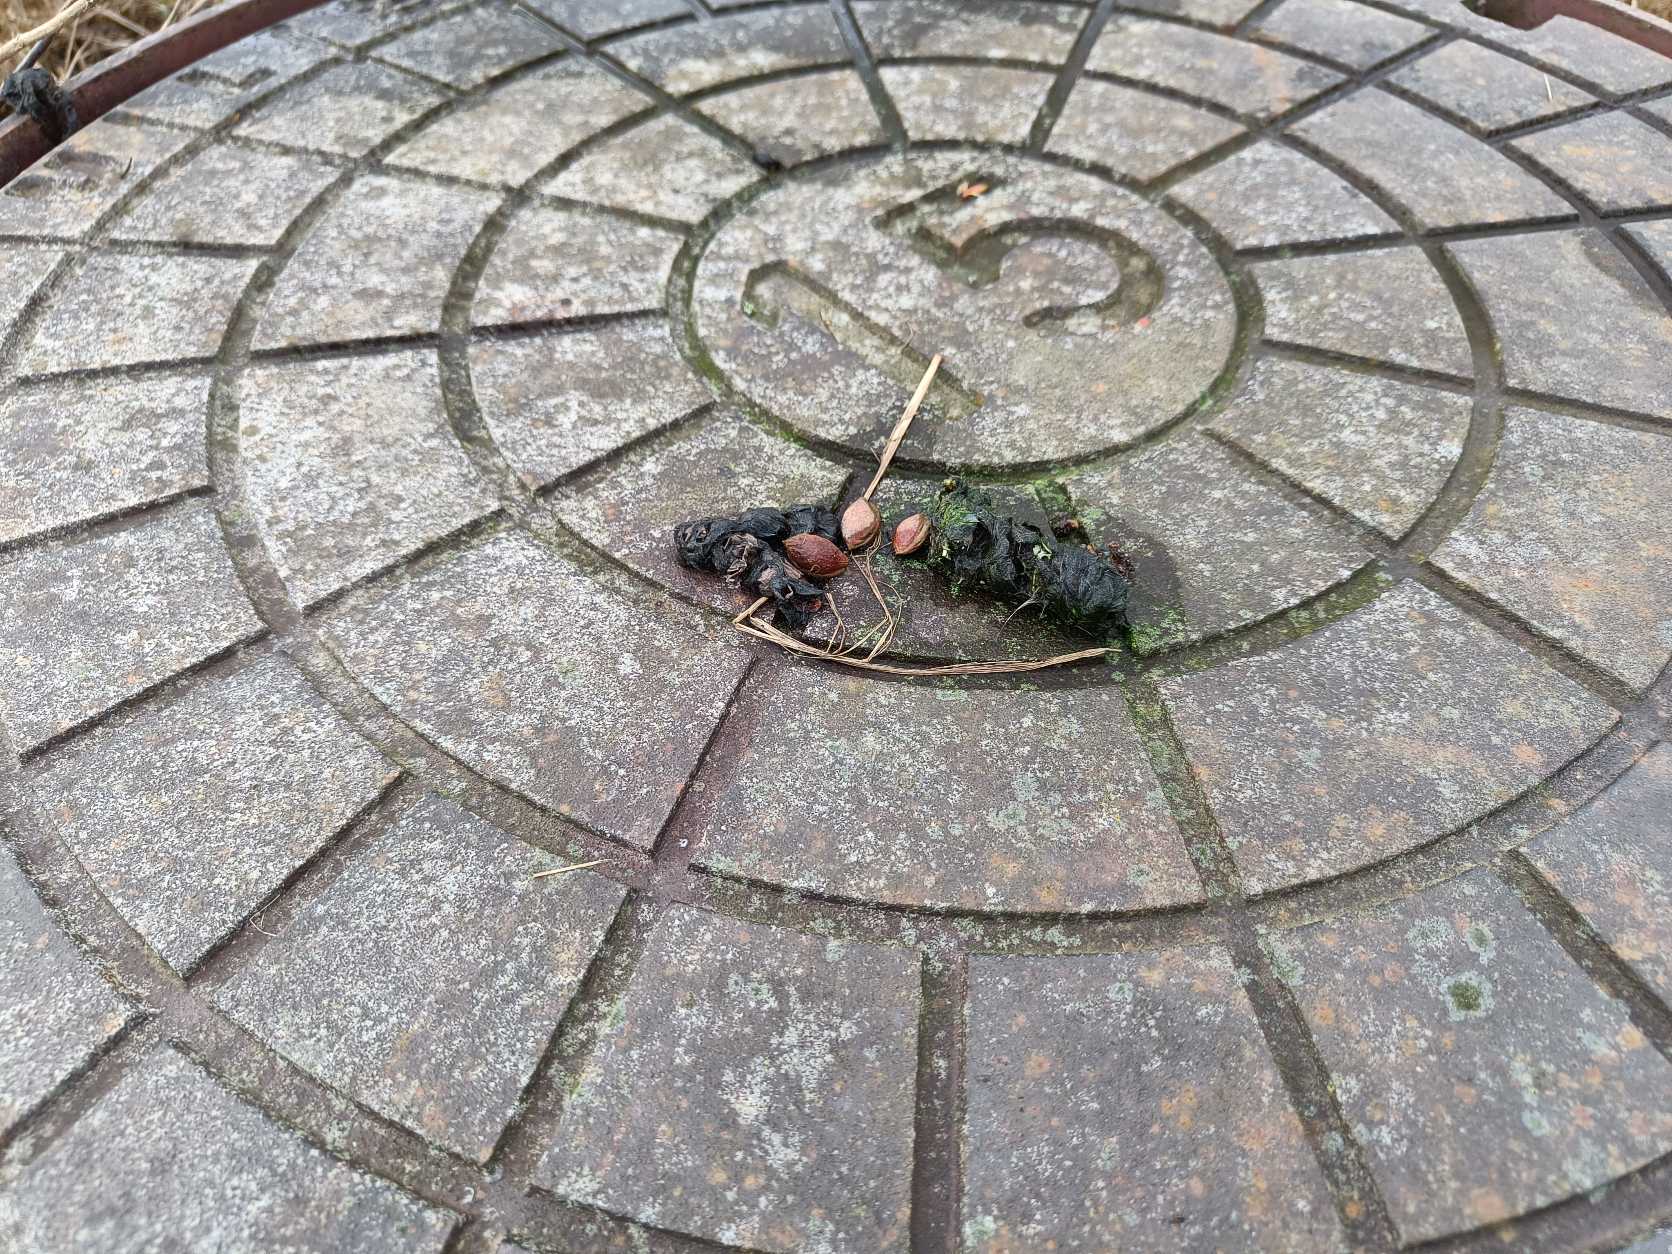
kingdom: Animalia
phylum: Chordata
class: Mammalia
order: Carnivora
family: Canidae
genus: Vulpes
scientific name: Vulpes vulpes
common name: Ræv
